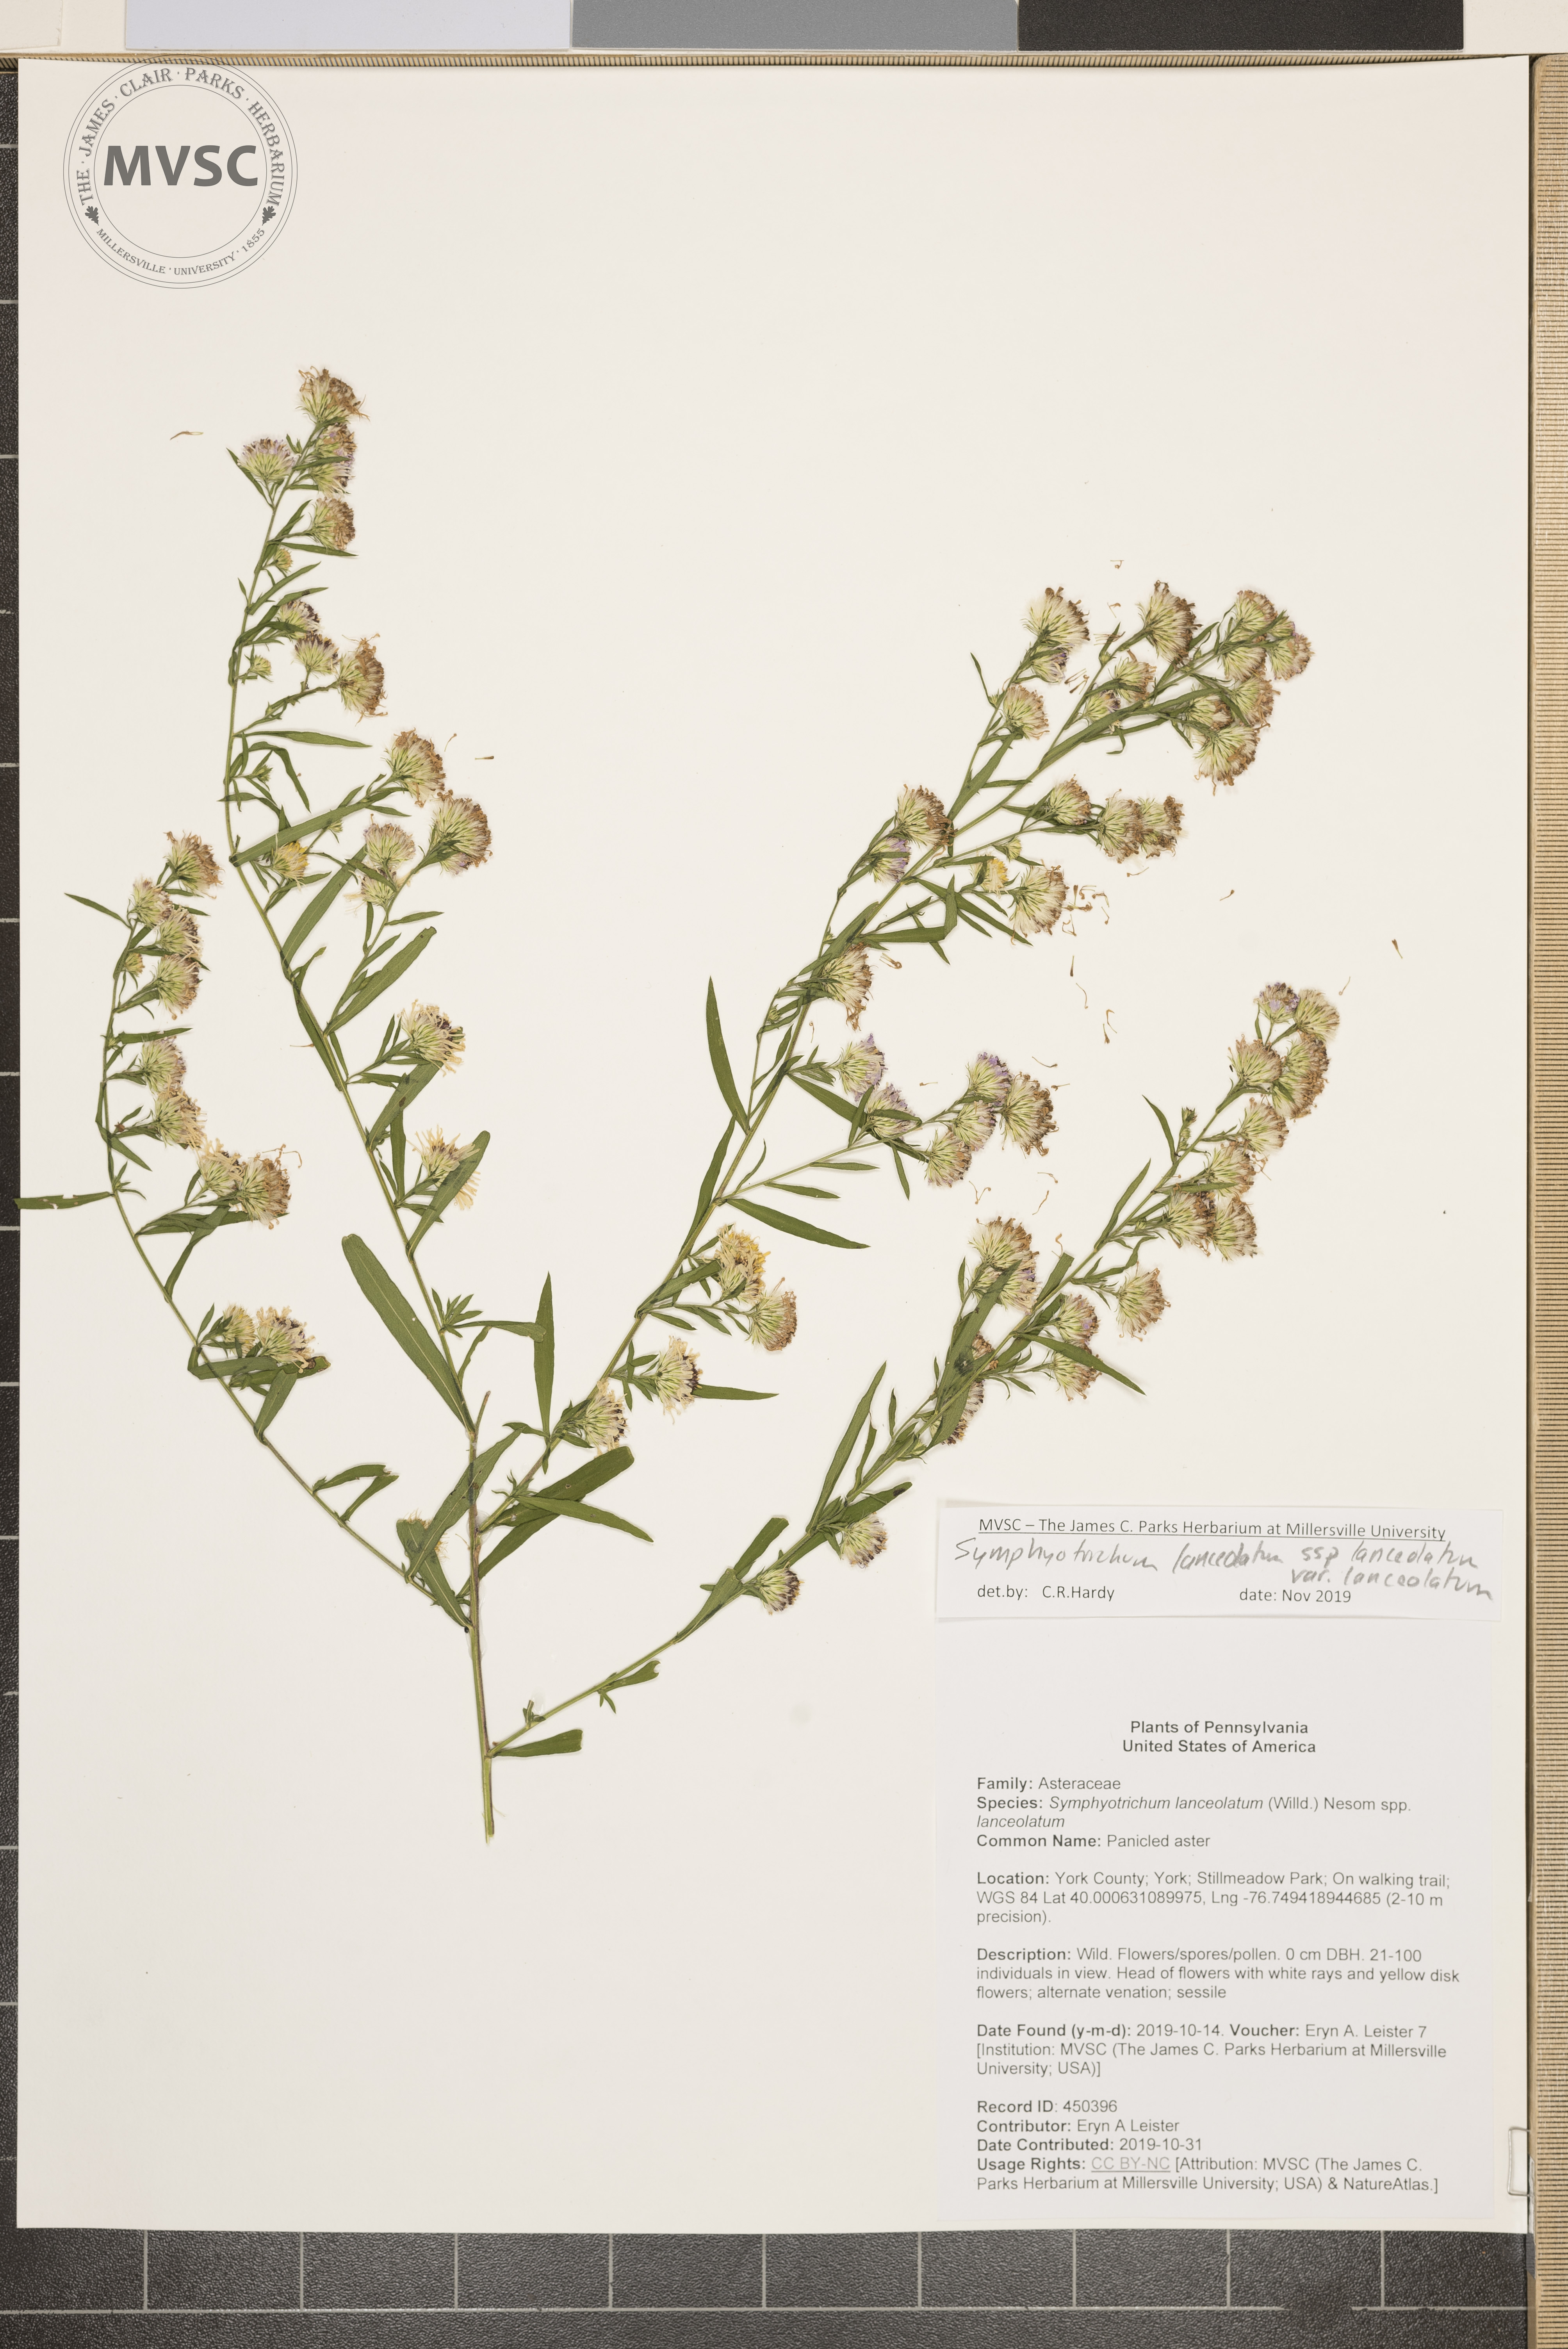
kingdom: Plantae
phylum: Tracheophyta
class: Magnoliopsida
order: Asterales
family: Asteraceae
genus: Symphyotrichum
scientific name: Symphyotrichum lanceolatum
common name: Panicled aster
